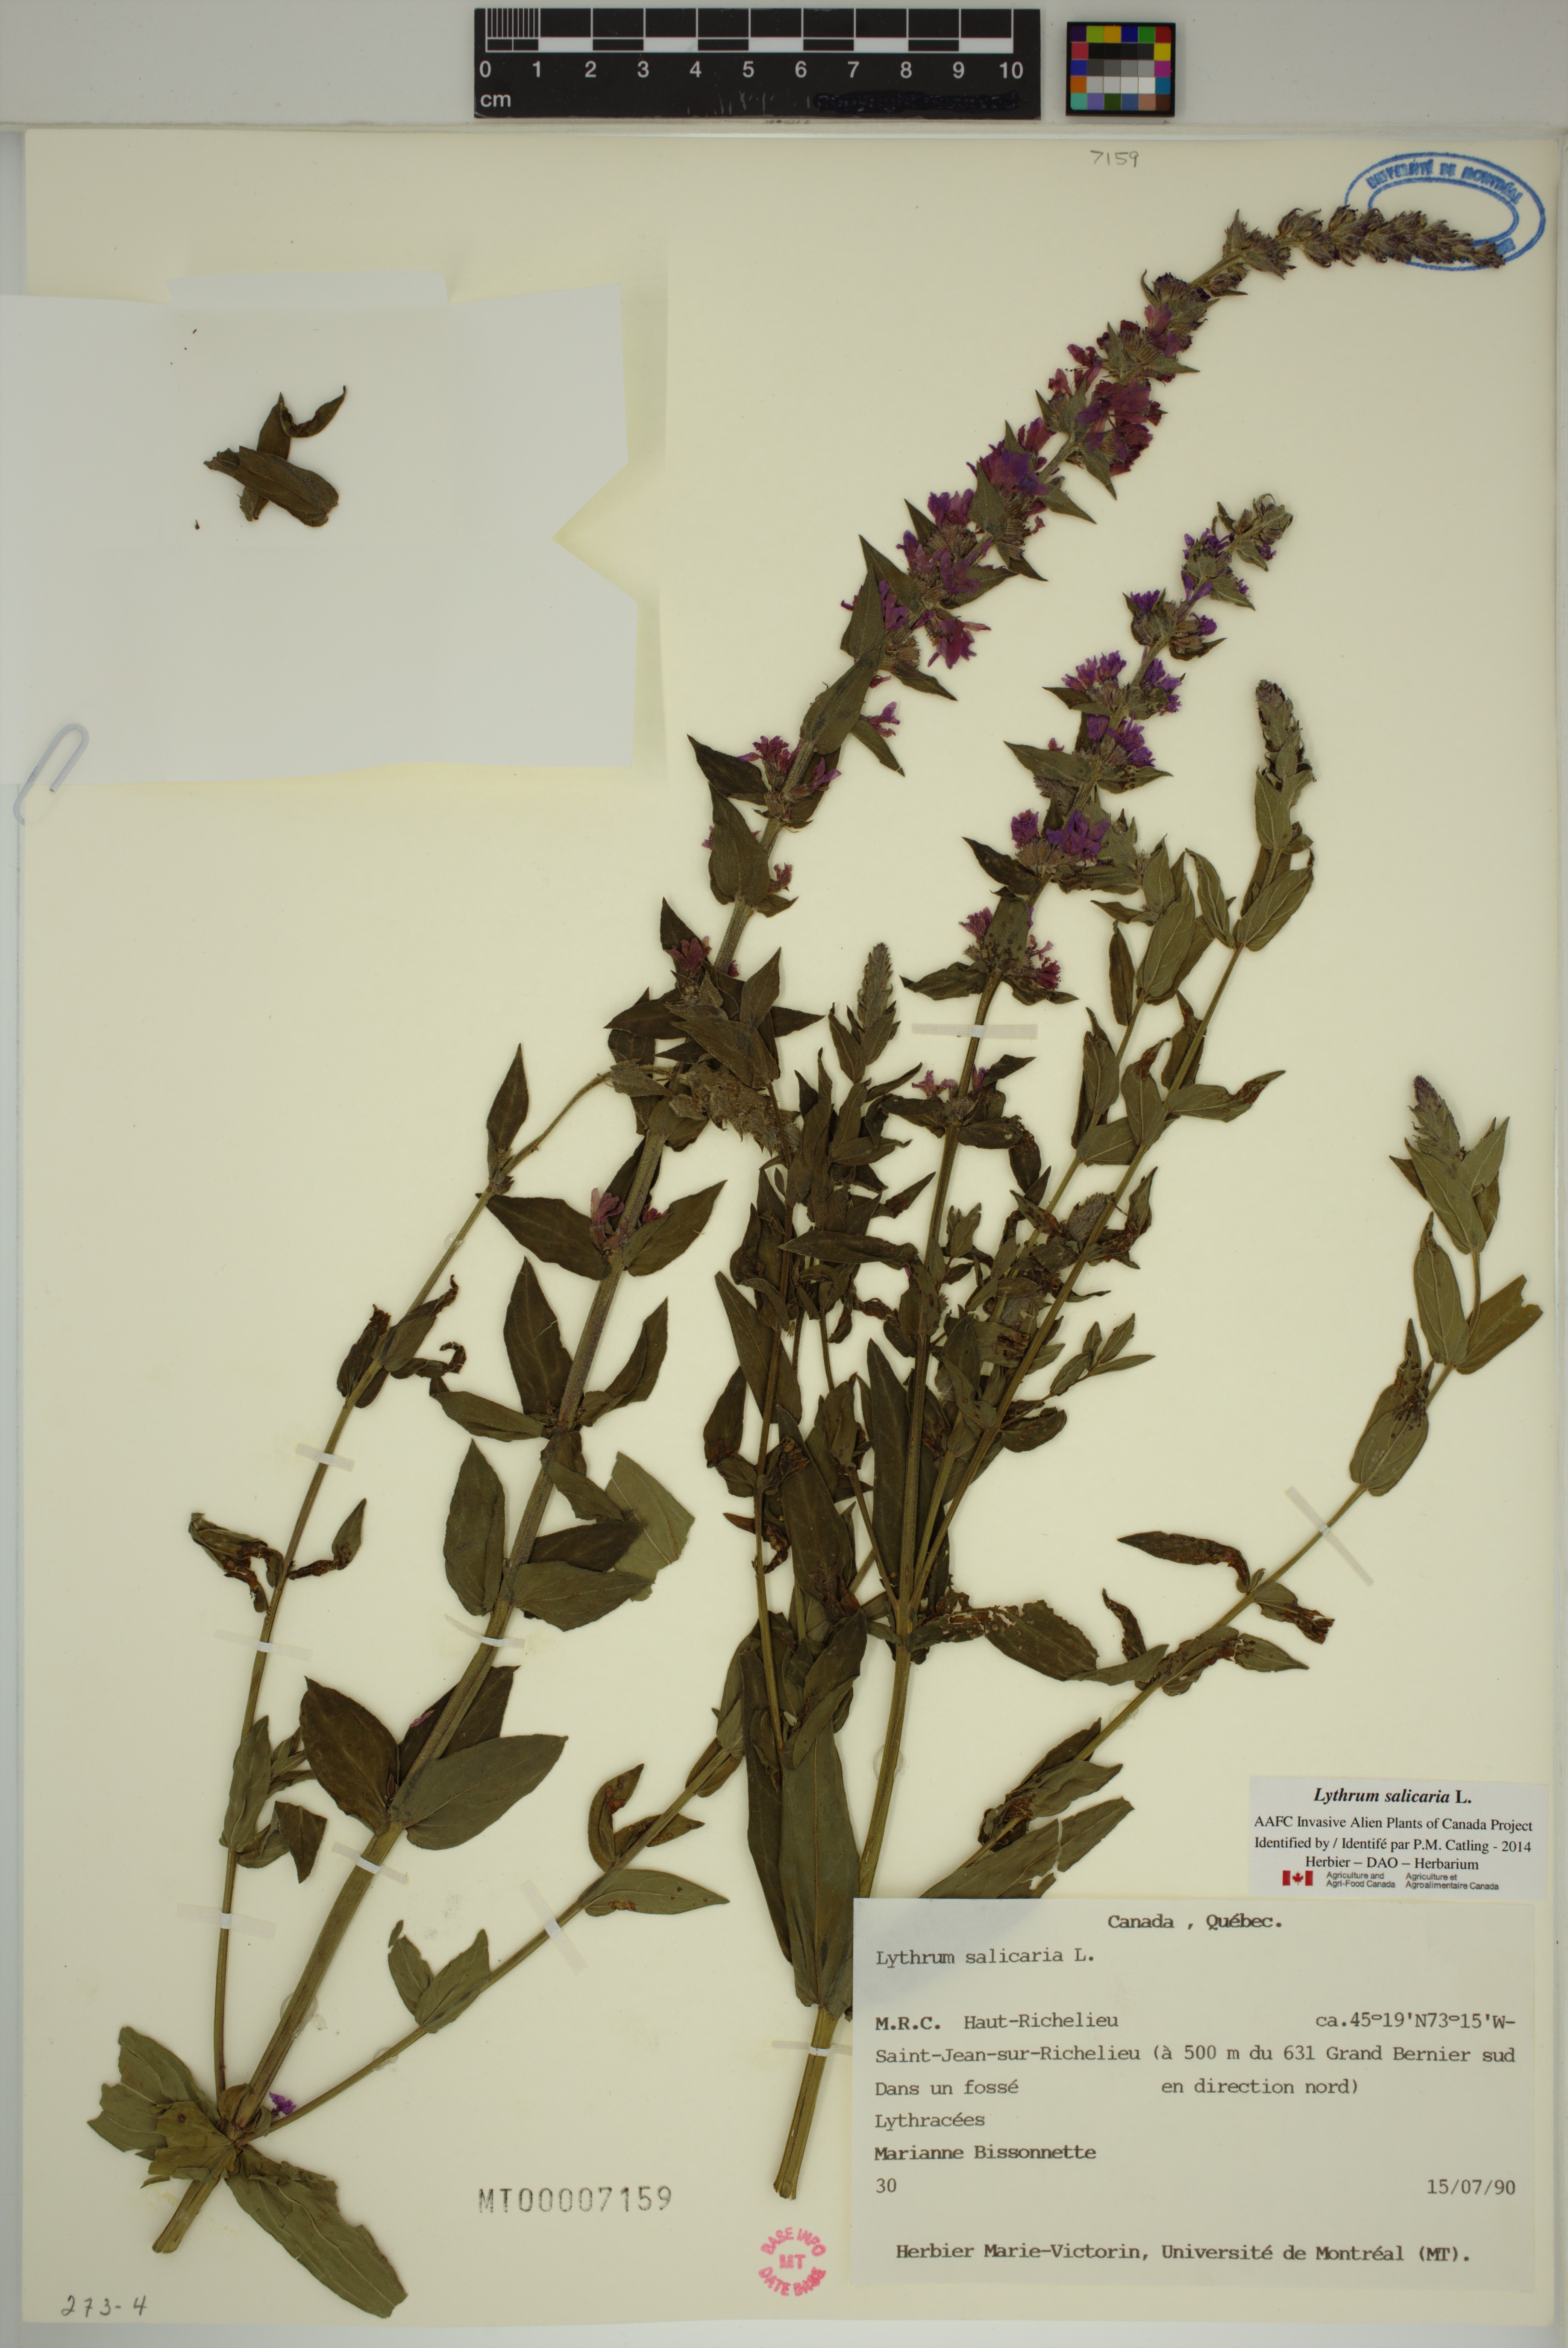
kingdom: Plantae
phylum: Tracheophyta
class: Magnoliopsida
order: Myrtales
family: Lythraceae
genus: Lythrum
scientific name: Lythrum salicaria
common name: Purple loosestrife
